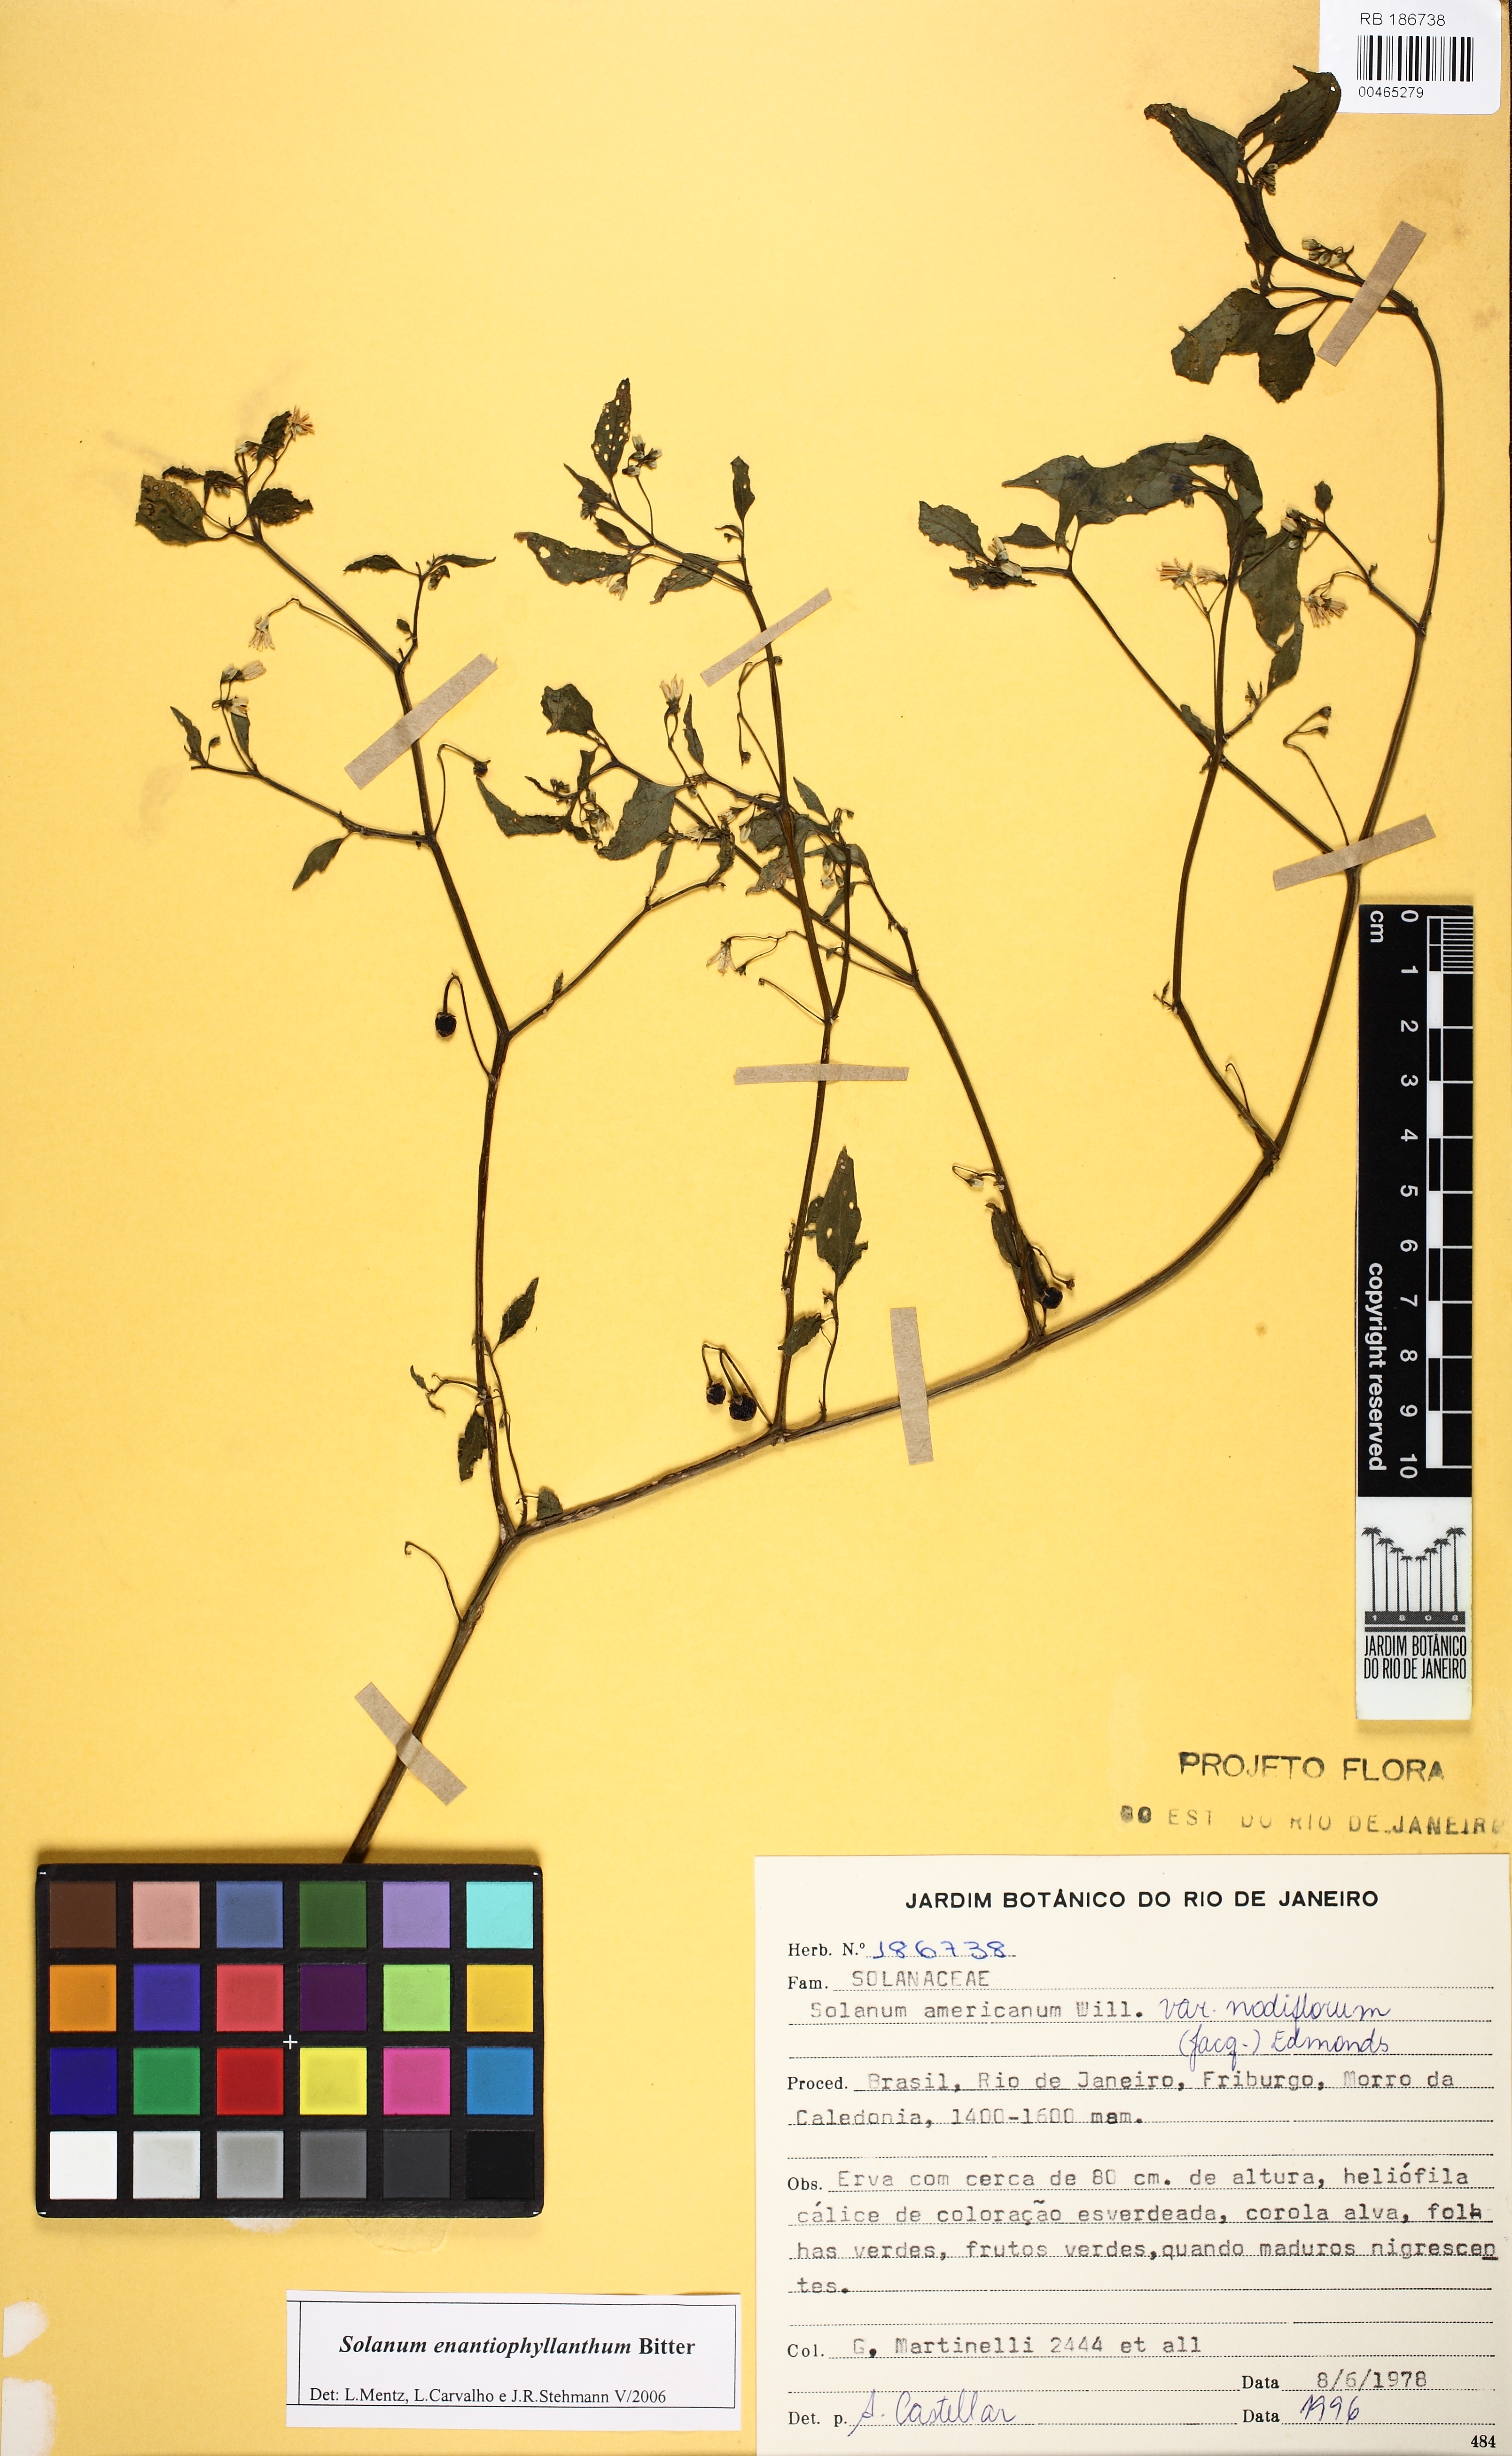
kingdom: Plantae
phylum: Tracheophyta
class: Magnoliopsida
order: Solanales
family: Solanaceae
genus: Solanum
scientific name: Solanum enantiophyllanthum
